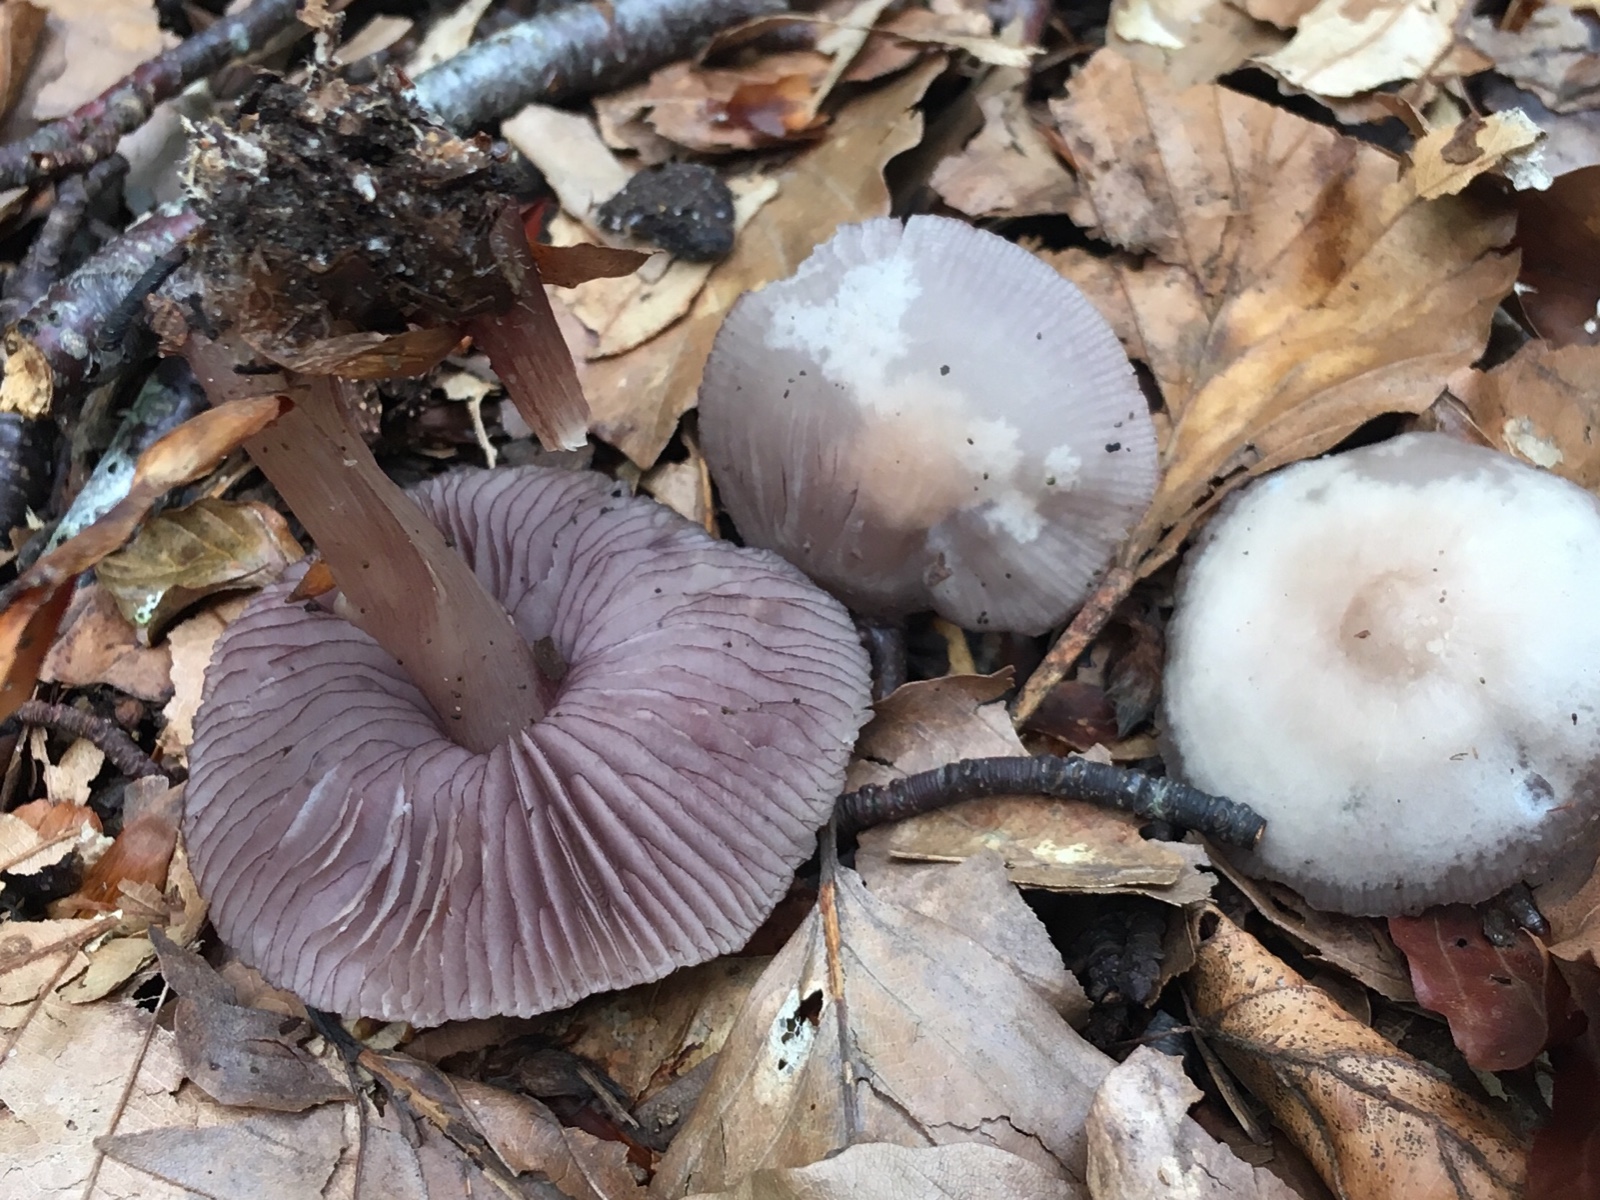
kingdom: Fungi
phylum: Basidiomycota
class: Agaricomycetes
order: Agaricales
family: Mycenaceae
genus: Mycena
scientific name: Mycena pelianthina
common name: mørkbladet huesvamp
